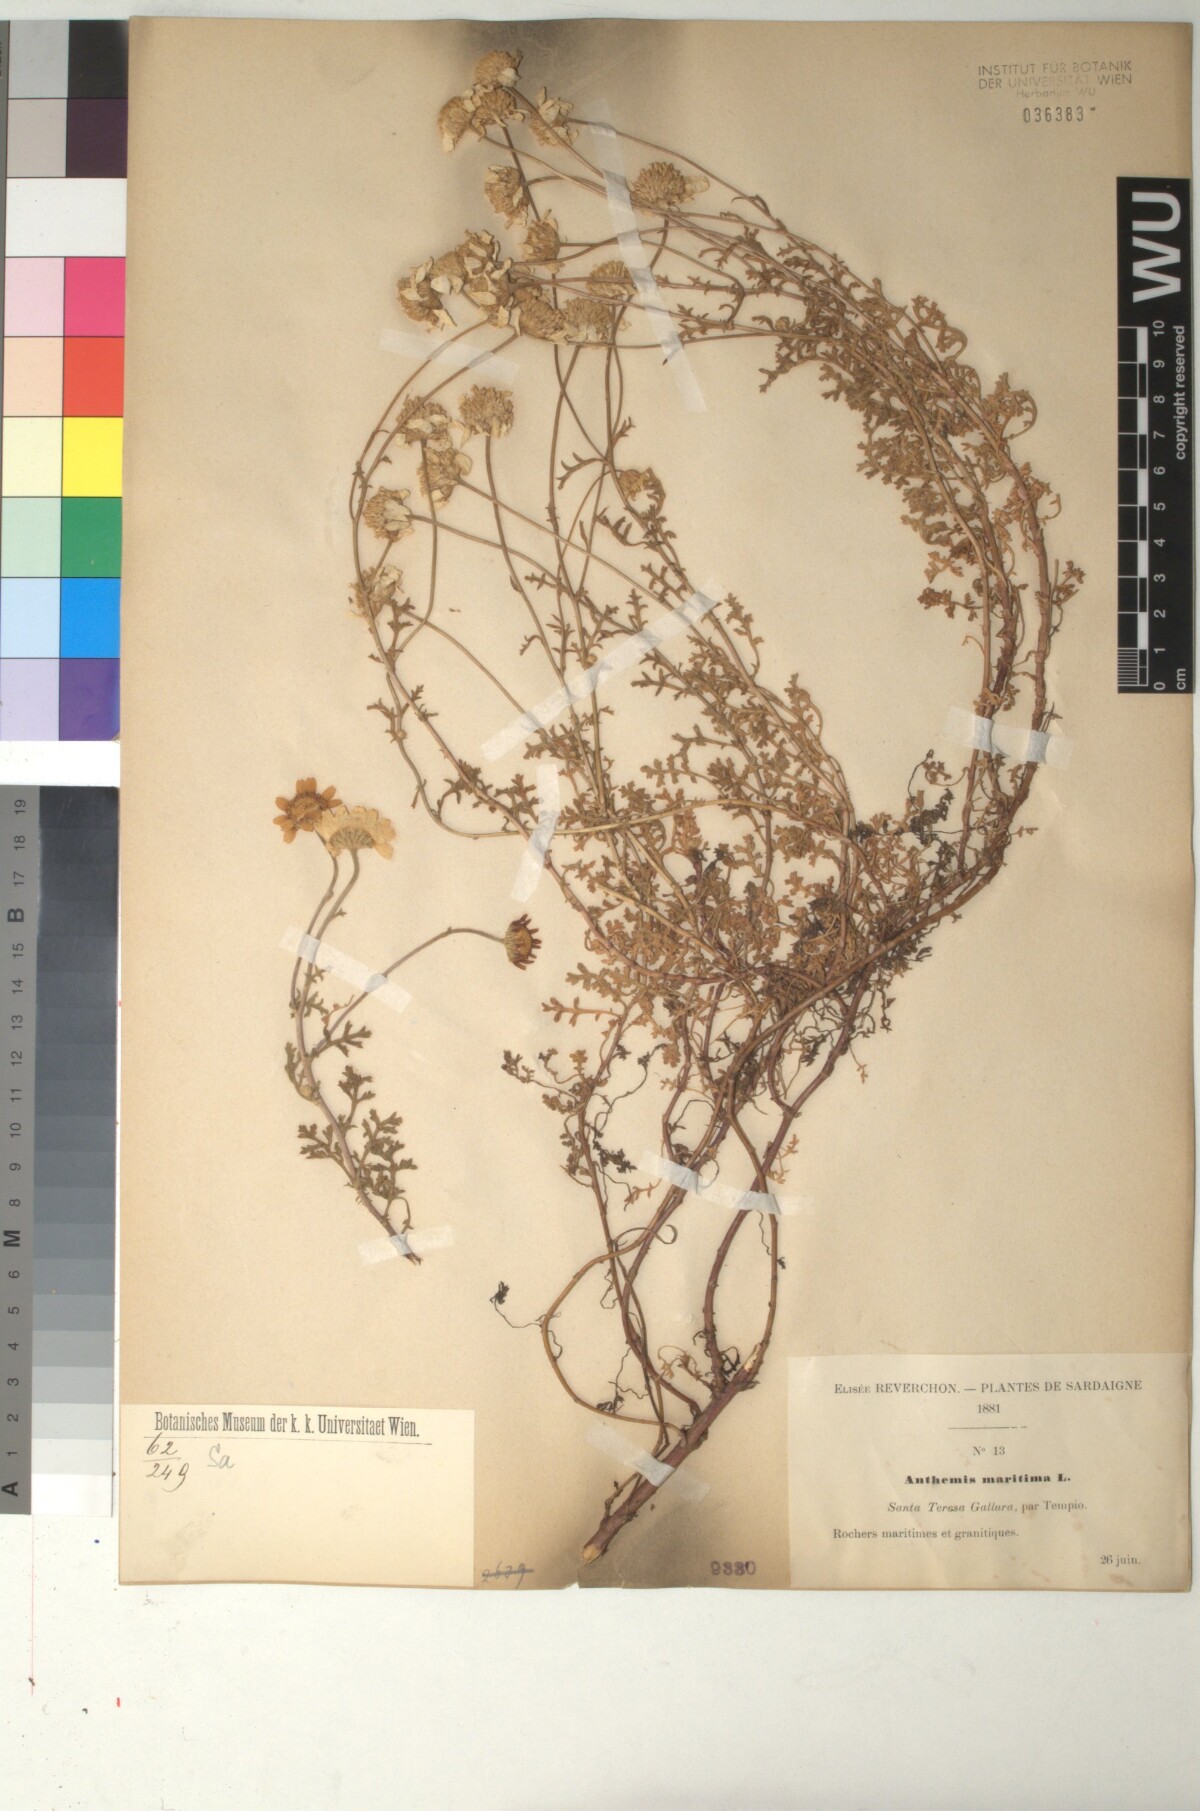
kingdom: Plantae
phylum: Tracheophyta
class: Magnoliopsida
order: Asterales
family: Asteraceae
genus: Anthemis
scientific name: Anthemis maritima
